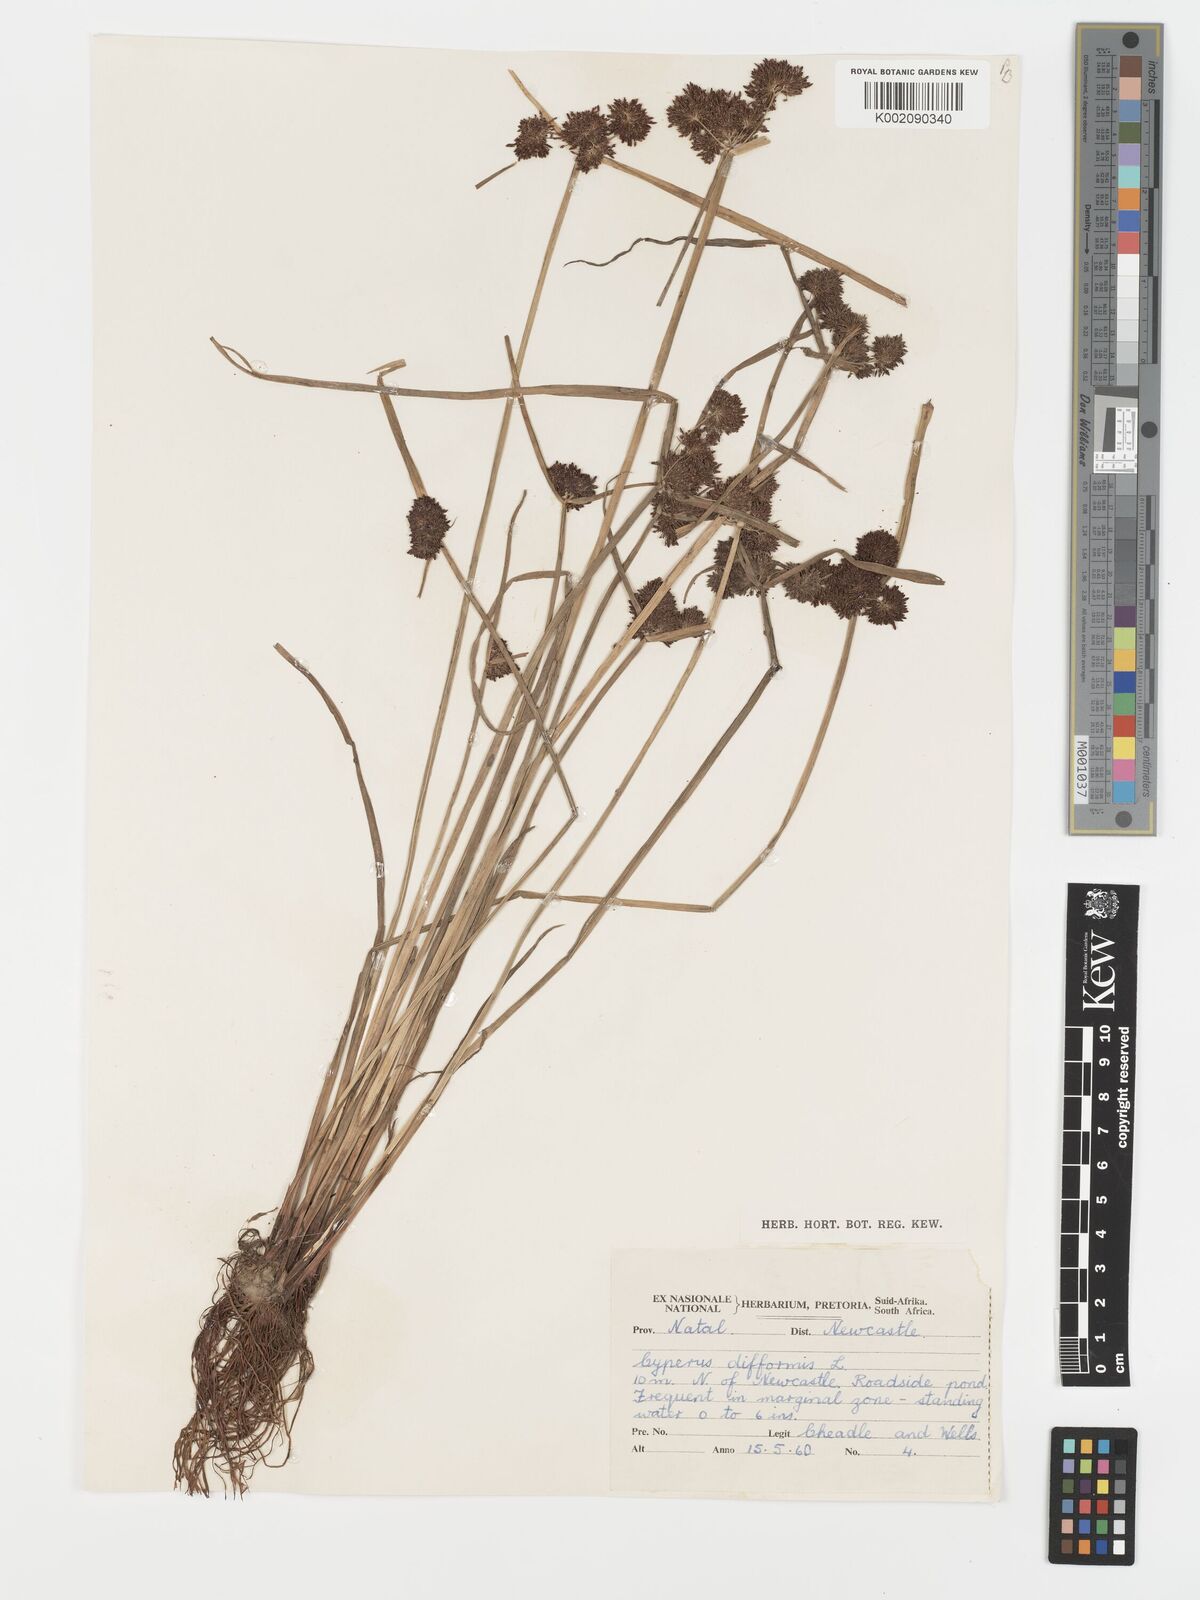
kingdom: Plantae
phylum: Tracheophyta
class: Liliopsida
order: Poales
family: Cyperaceae
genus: Cyperus
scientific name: Cyperus difformis
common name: Variable flatsedge
